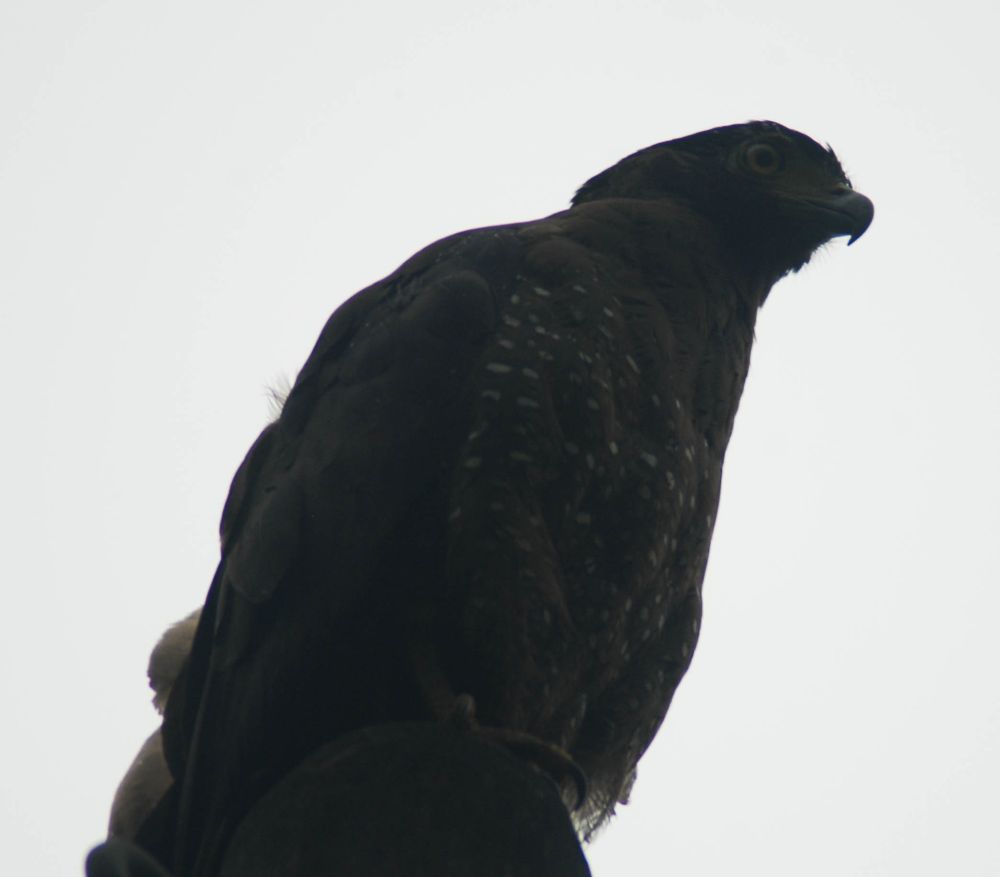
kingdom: Animalia
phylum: Chordata
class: Aves
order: Accipitriformes
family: Accipitridae
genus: Spilornis
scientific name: Spilornis cheela
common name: Crested serpent eagle
